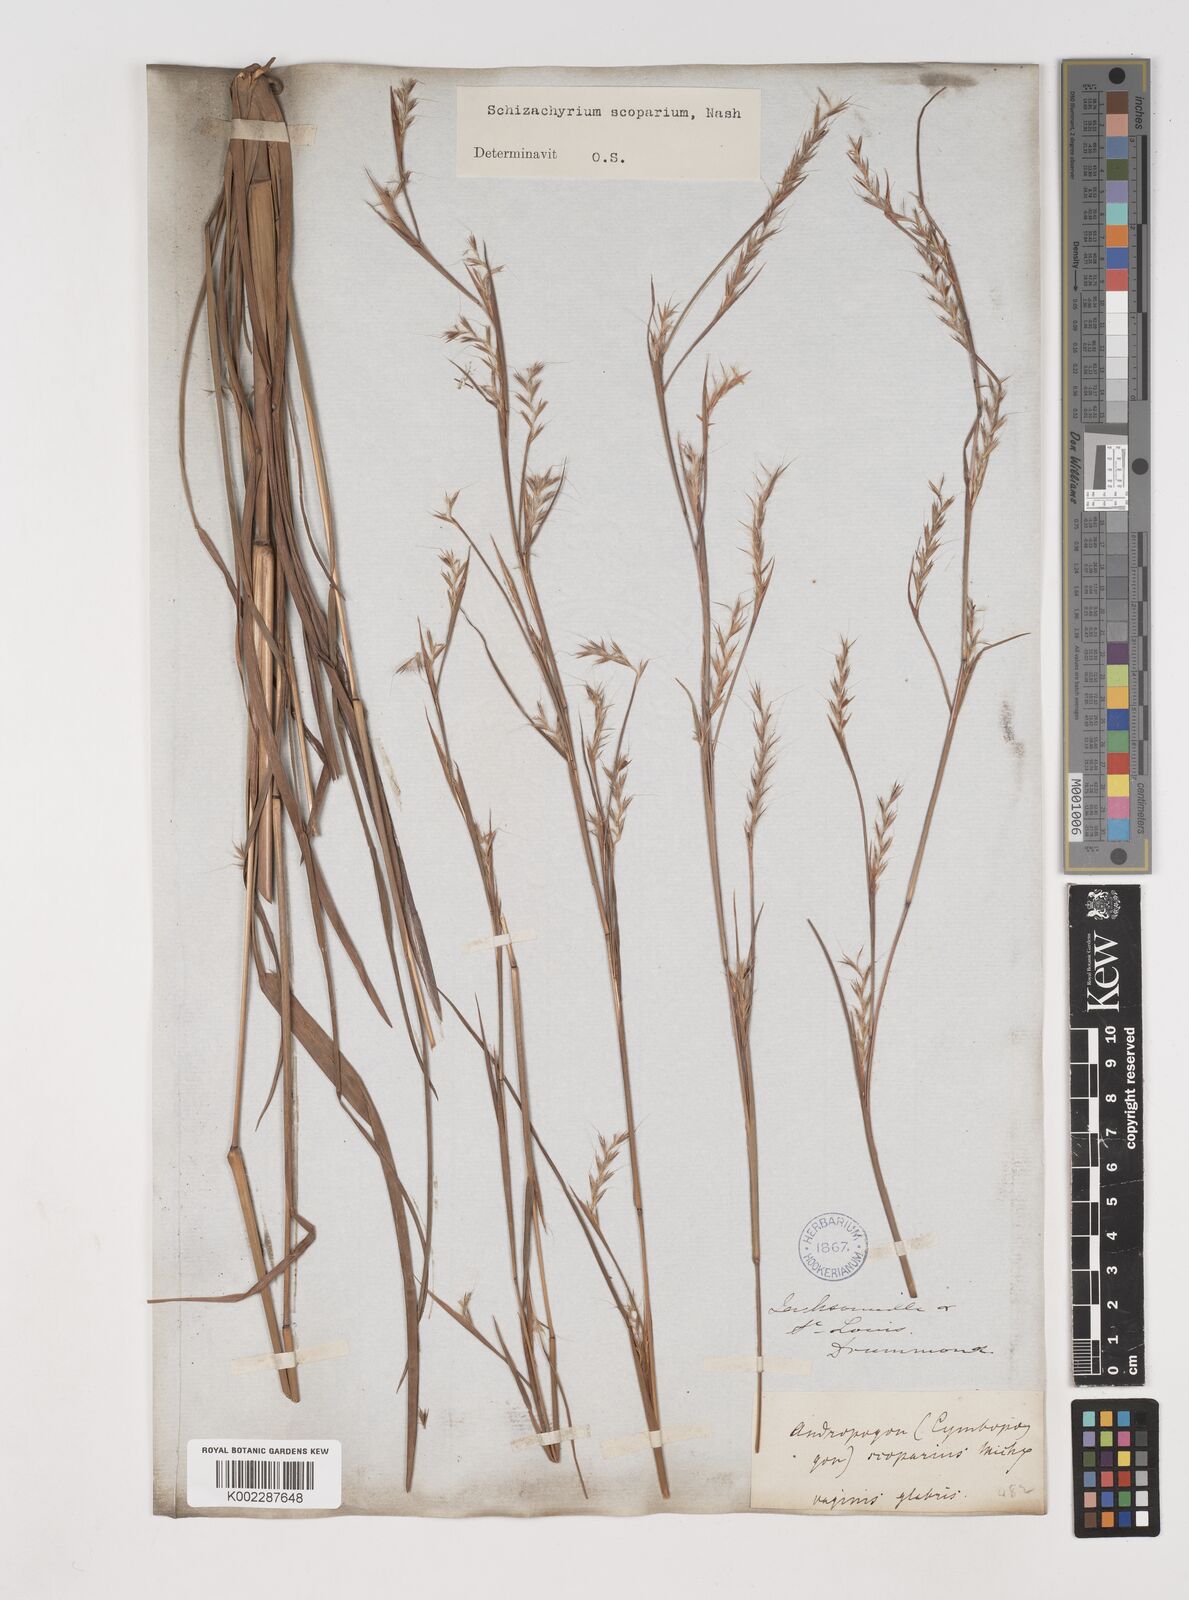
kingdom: Plantae
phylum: Tracheophyta
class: Liliopsida
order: Poales
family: Poaceae
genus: Schizachyrium
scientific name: Schizachyrium scoparium
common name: Little bluestem
